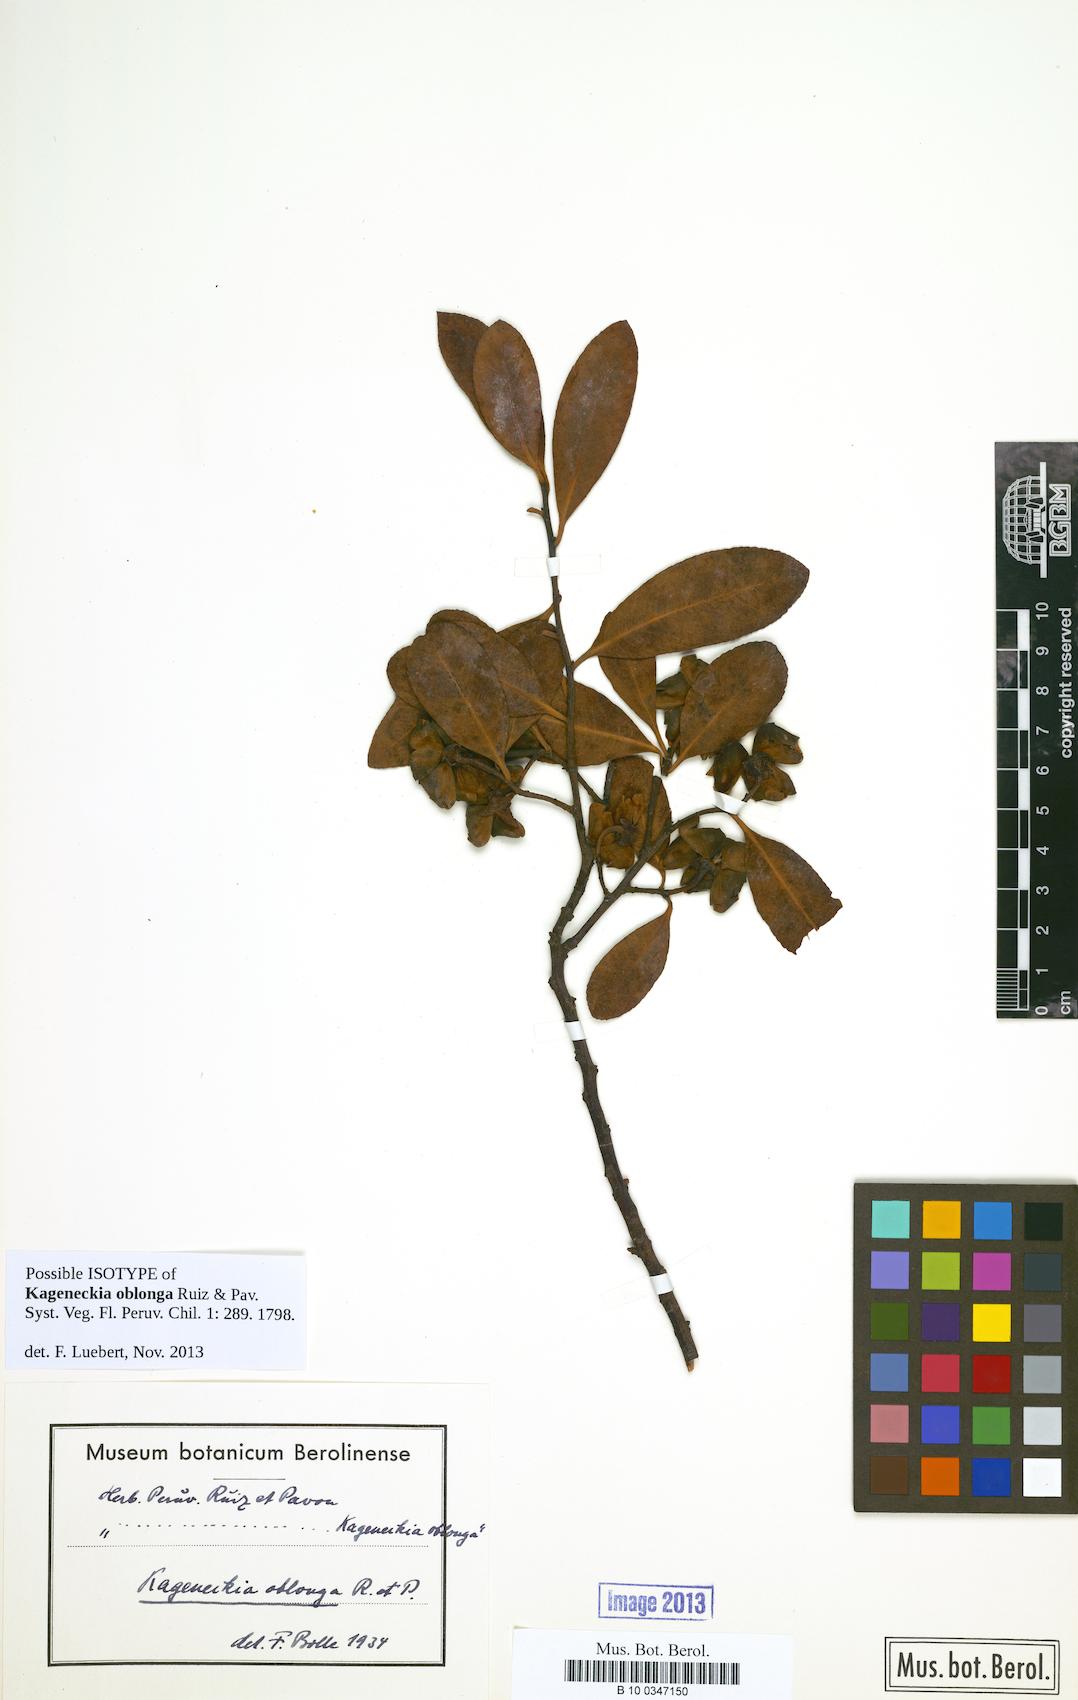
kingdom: Plantae
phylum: Tracheophyta
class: Magnoliopsida
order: Rosales
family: Rosaceae
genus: Kageneckia
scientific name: Kageneckia oblonga
